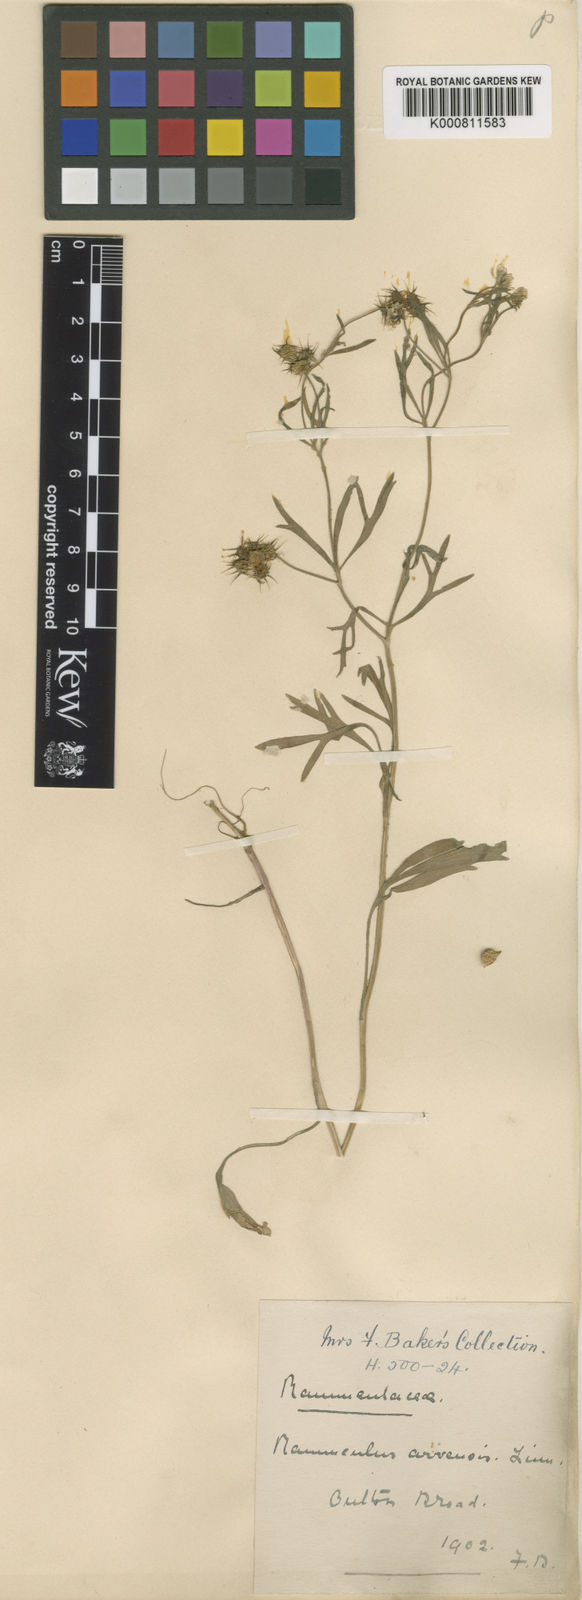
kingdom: Plantae
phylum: Tracheophyta
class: Magnoliopsida
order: Ranunculales
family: Ranunculaceae
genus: Ranunculus
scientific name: Ranunculus arvensis
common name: Corn buttercup
